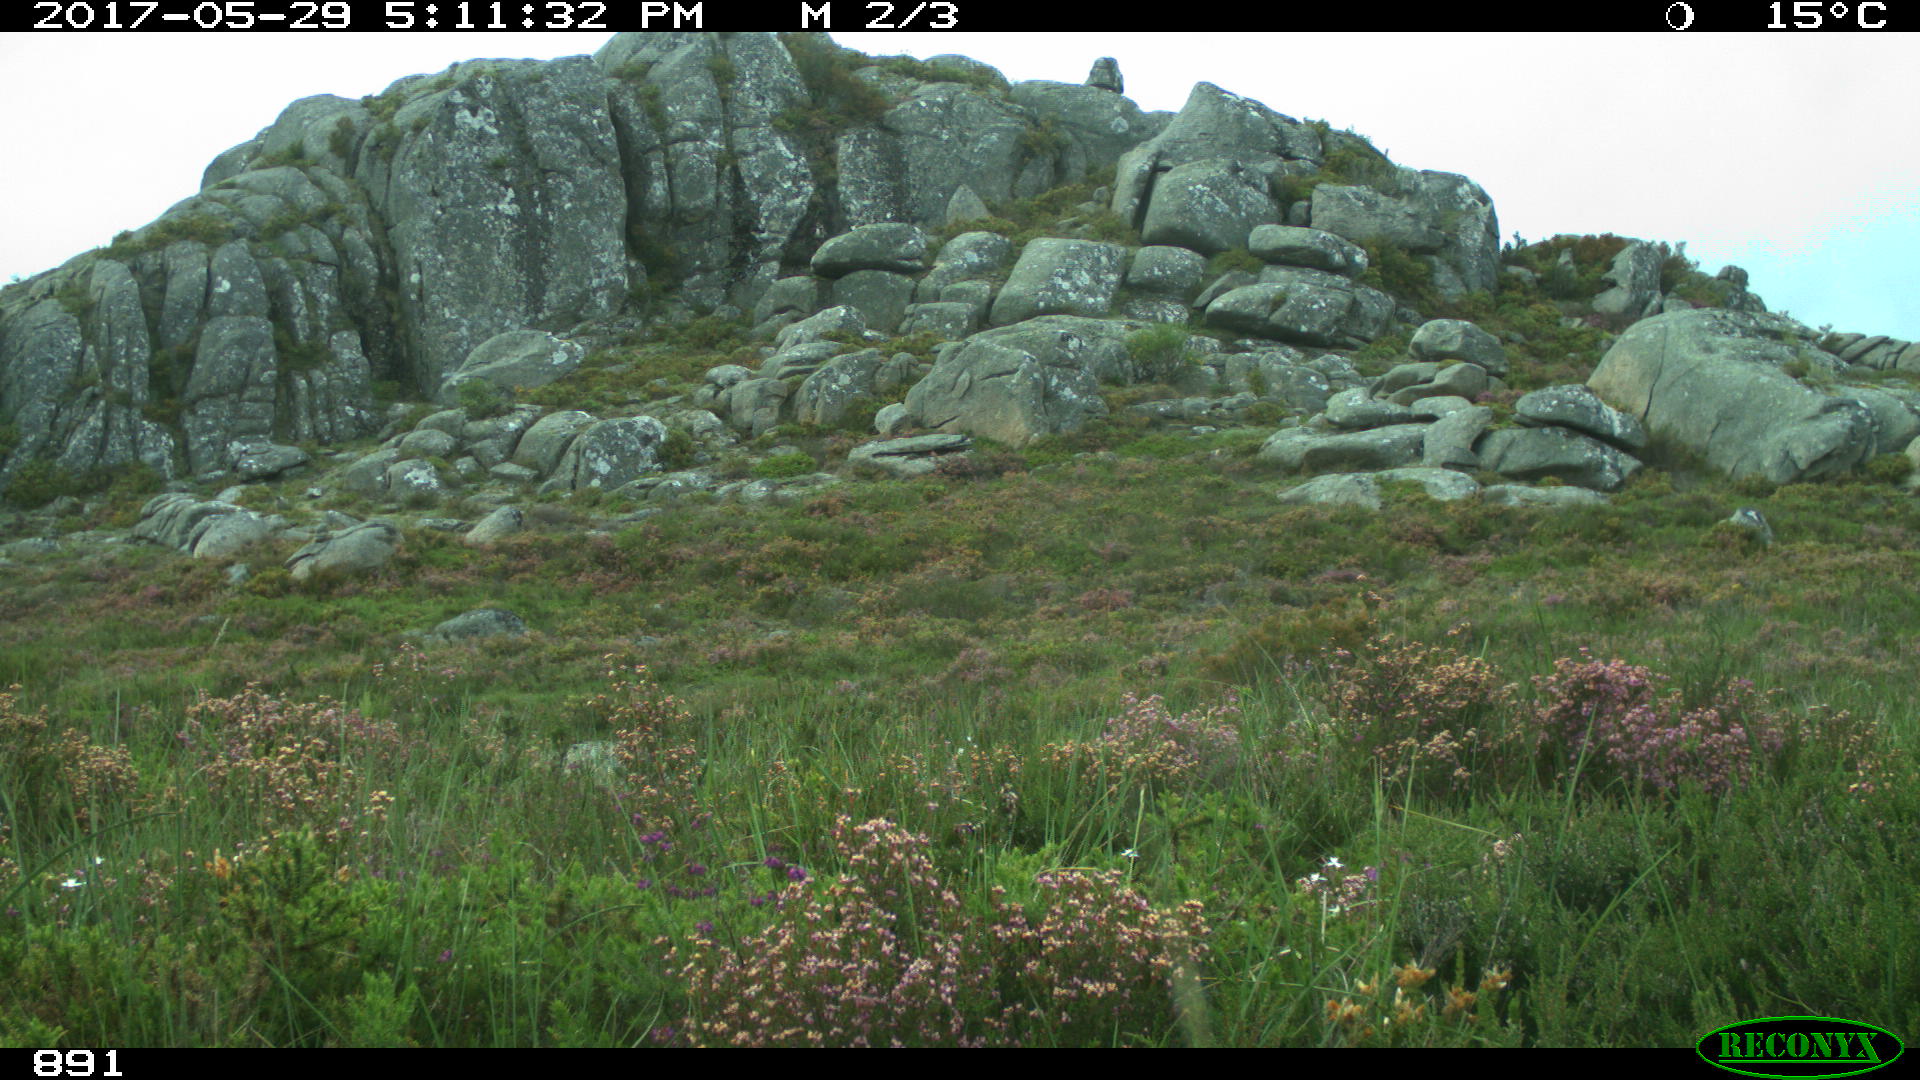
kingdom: Animalia
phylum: Chordata
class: Mammalia
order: Artiodactyla
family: Bovidae
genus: Bos
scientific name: Bos taurus
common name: Domesticated cattle
